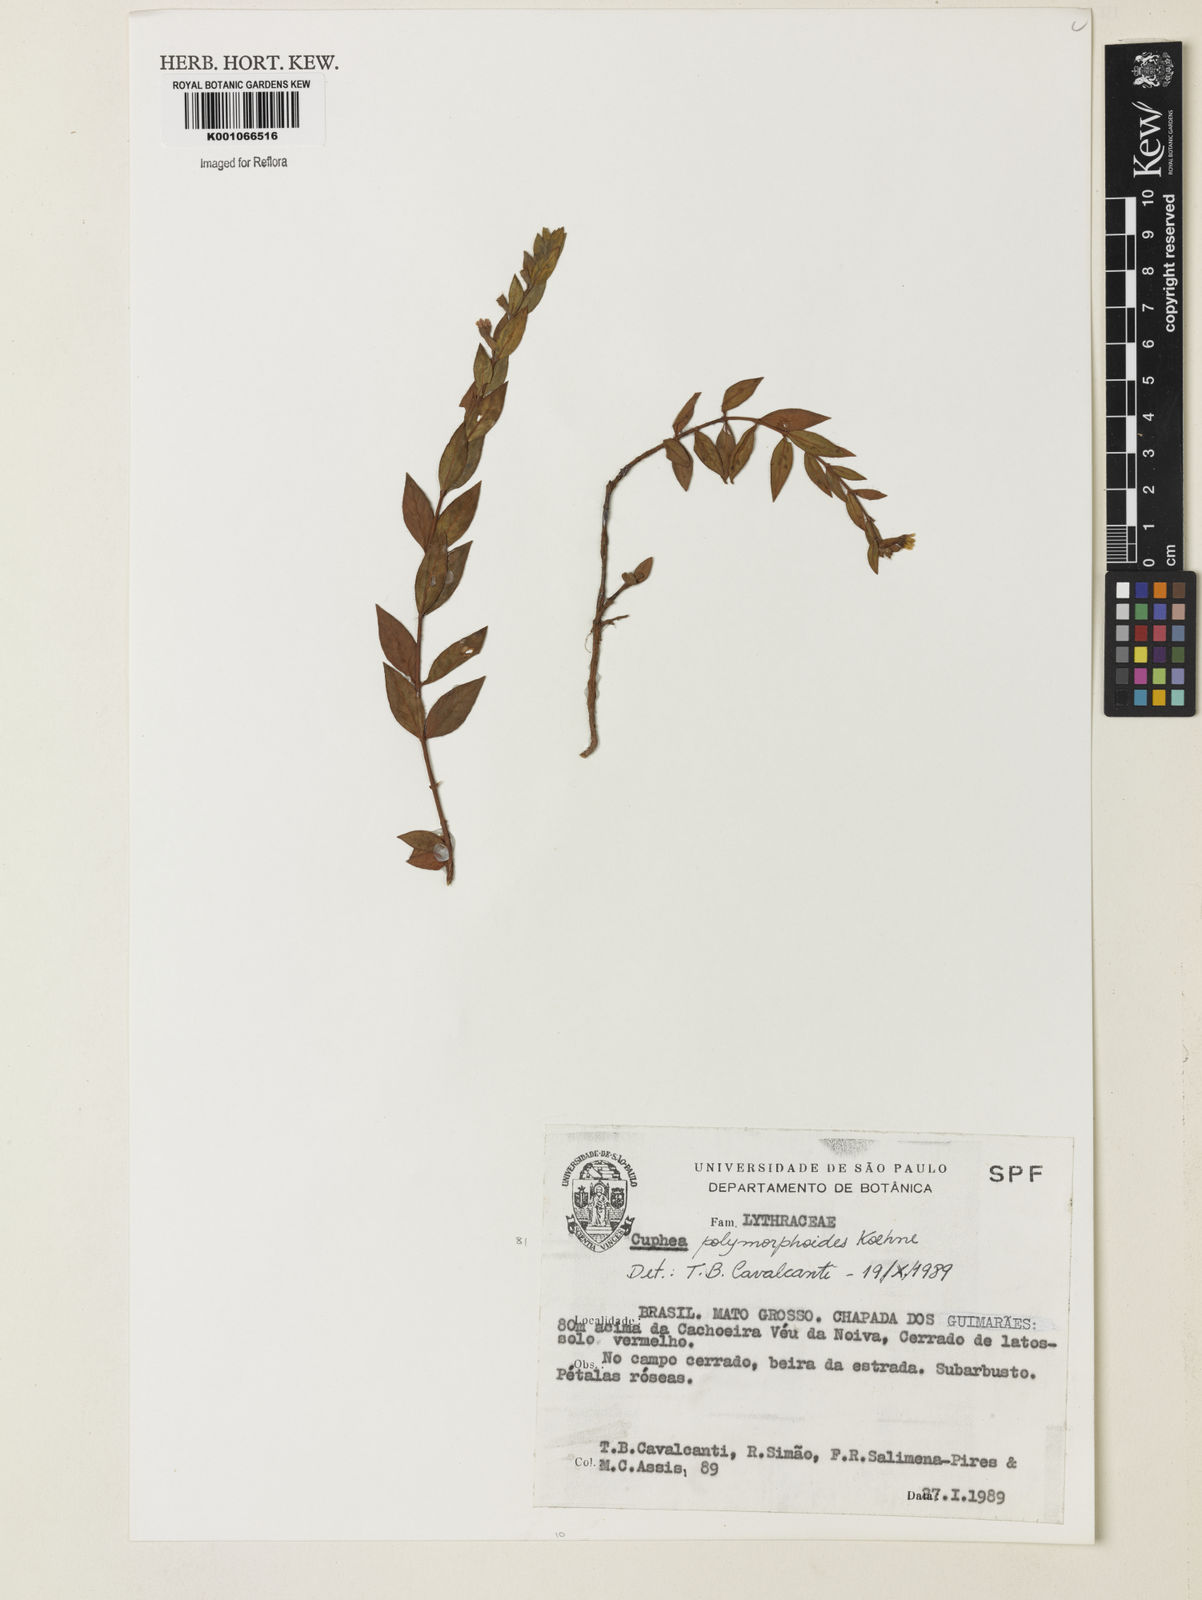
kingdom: Plantae
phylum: Tracheophyta
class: Magnoliopsida
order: Myrtales
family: Lythraceae
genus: Cuphea
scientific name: Cuphea spermacoce
